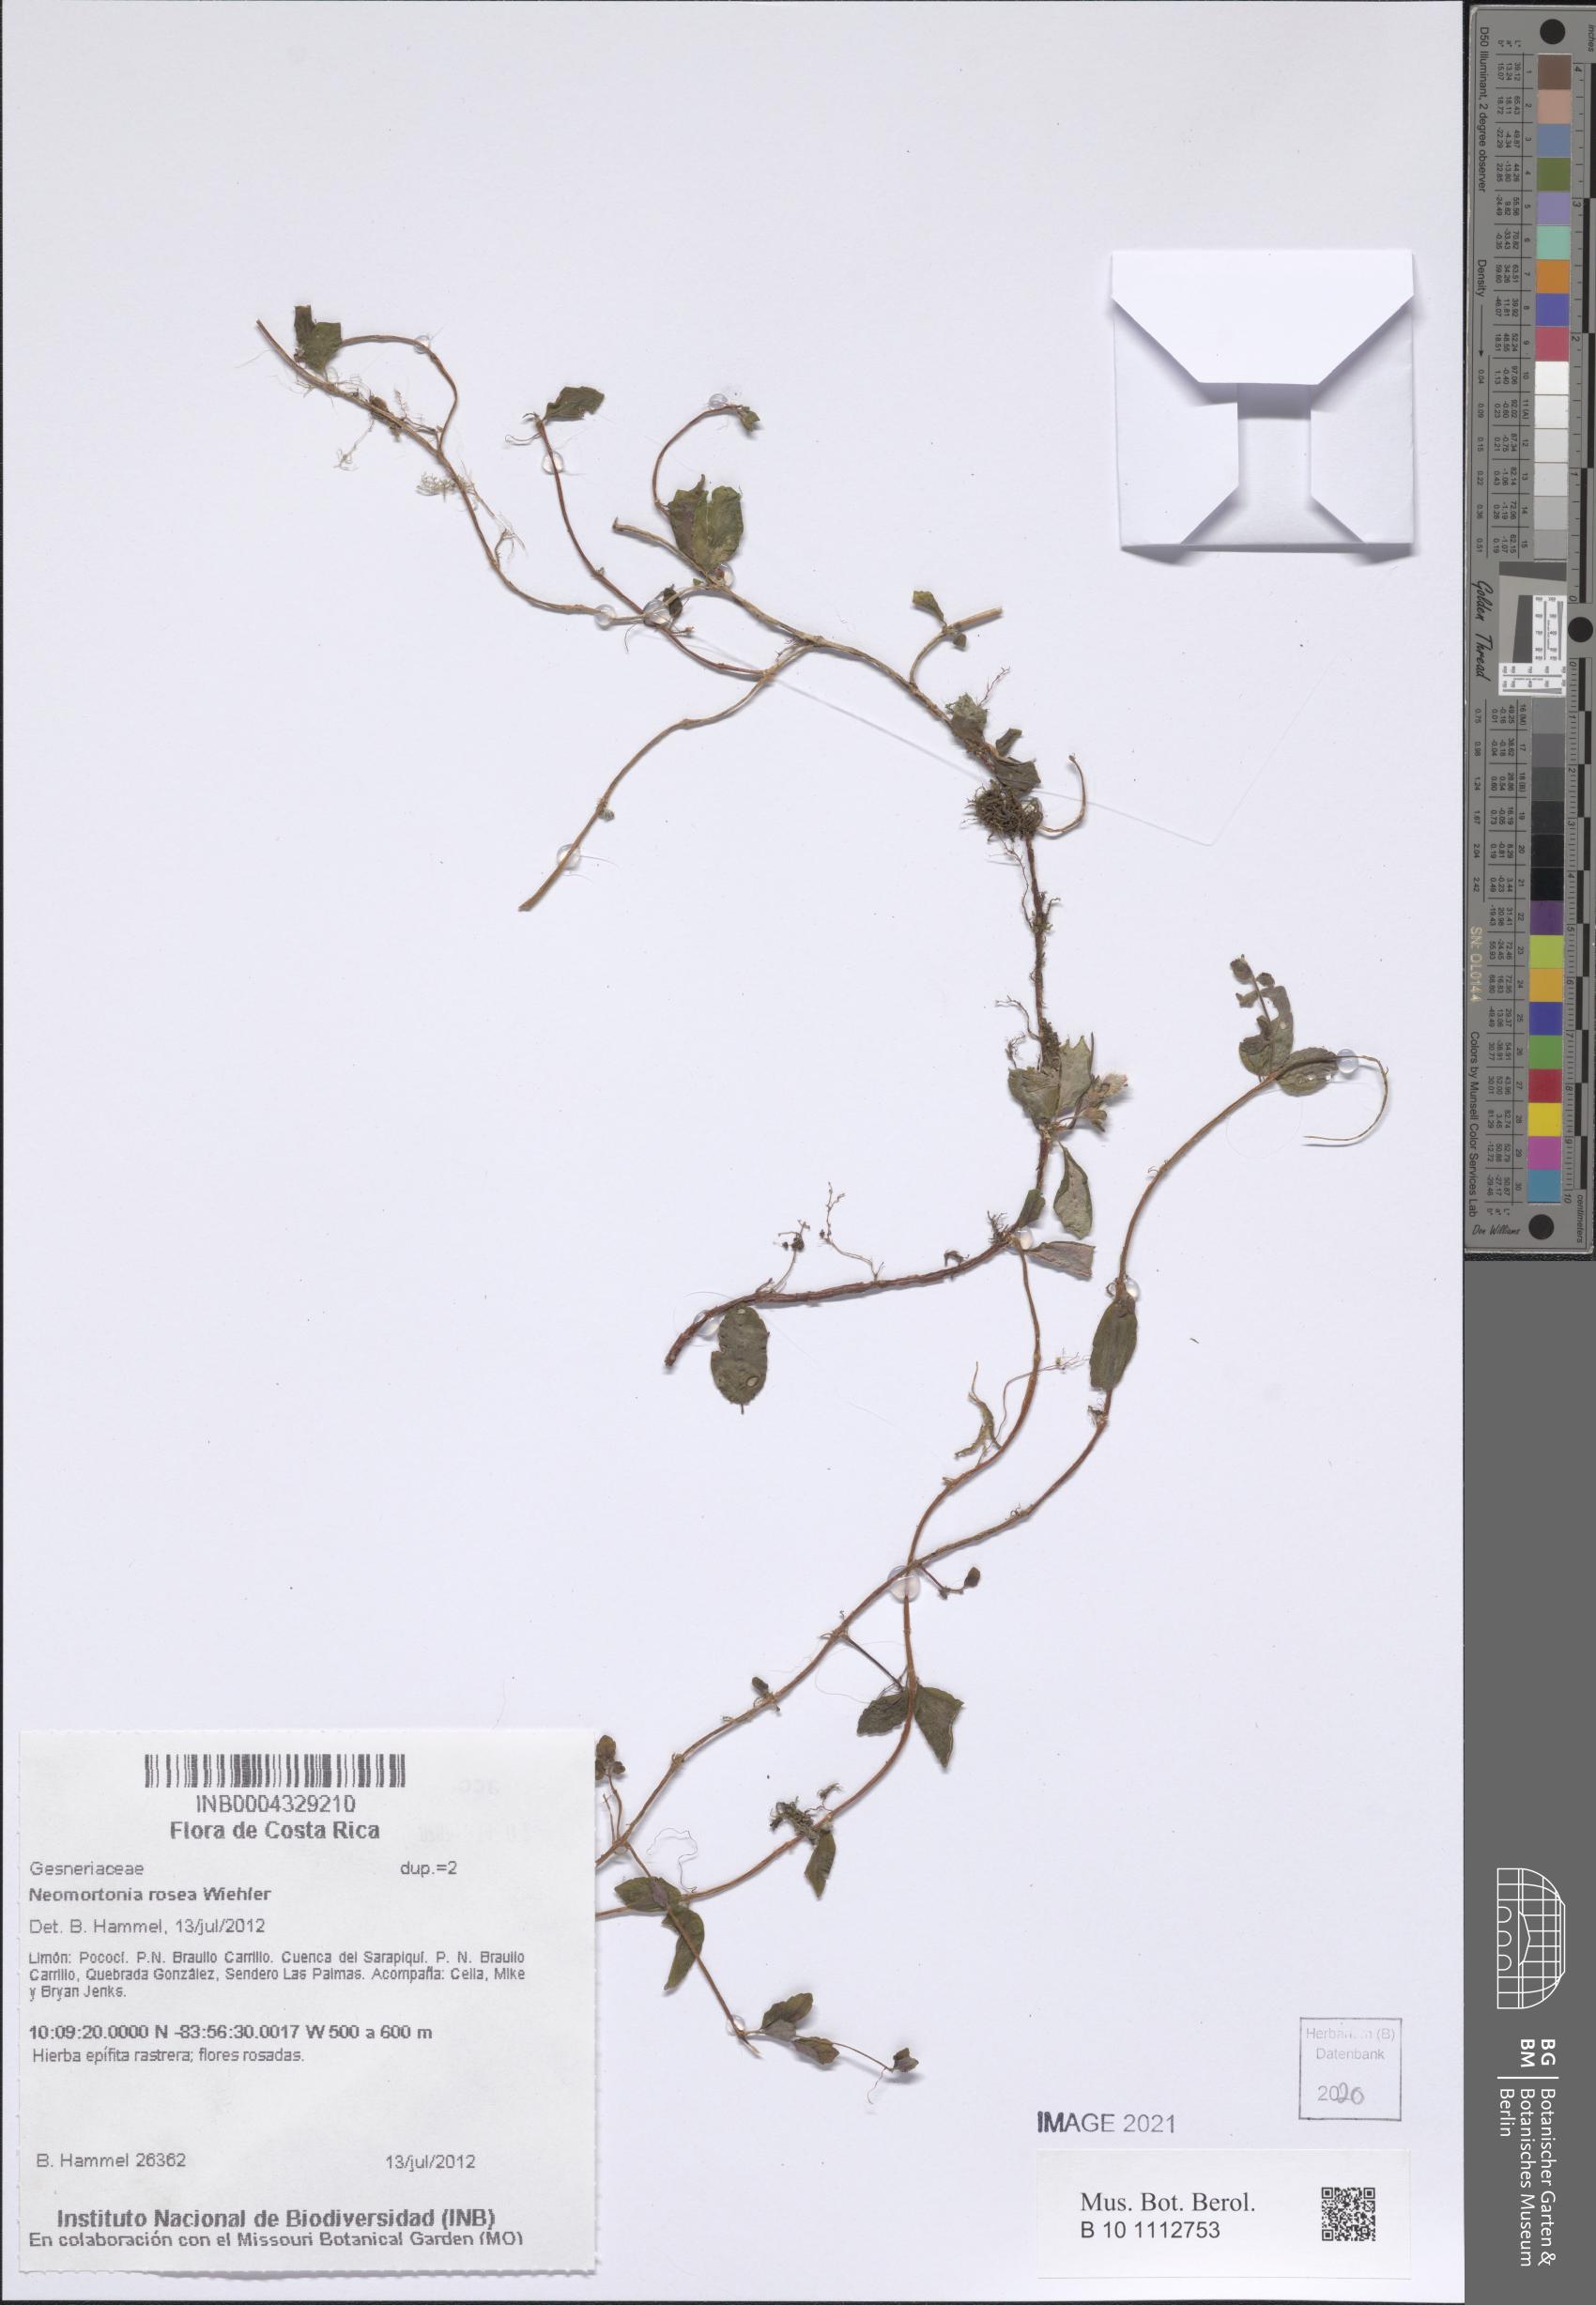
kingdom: Plantae
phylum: Tracheophyta
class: Magnoliopsida
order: Lamiales
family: Gesneriaceae
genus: Neomortonia
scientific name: Neomortonia rosea
